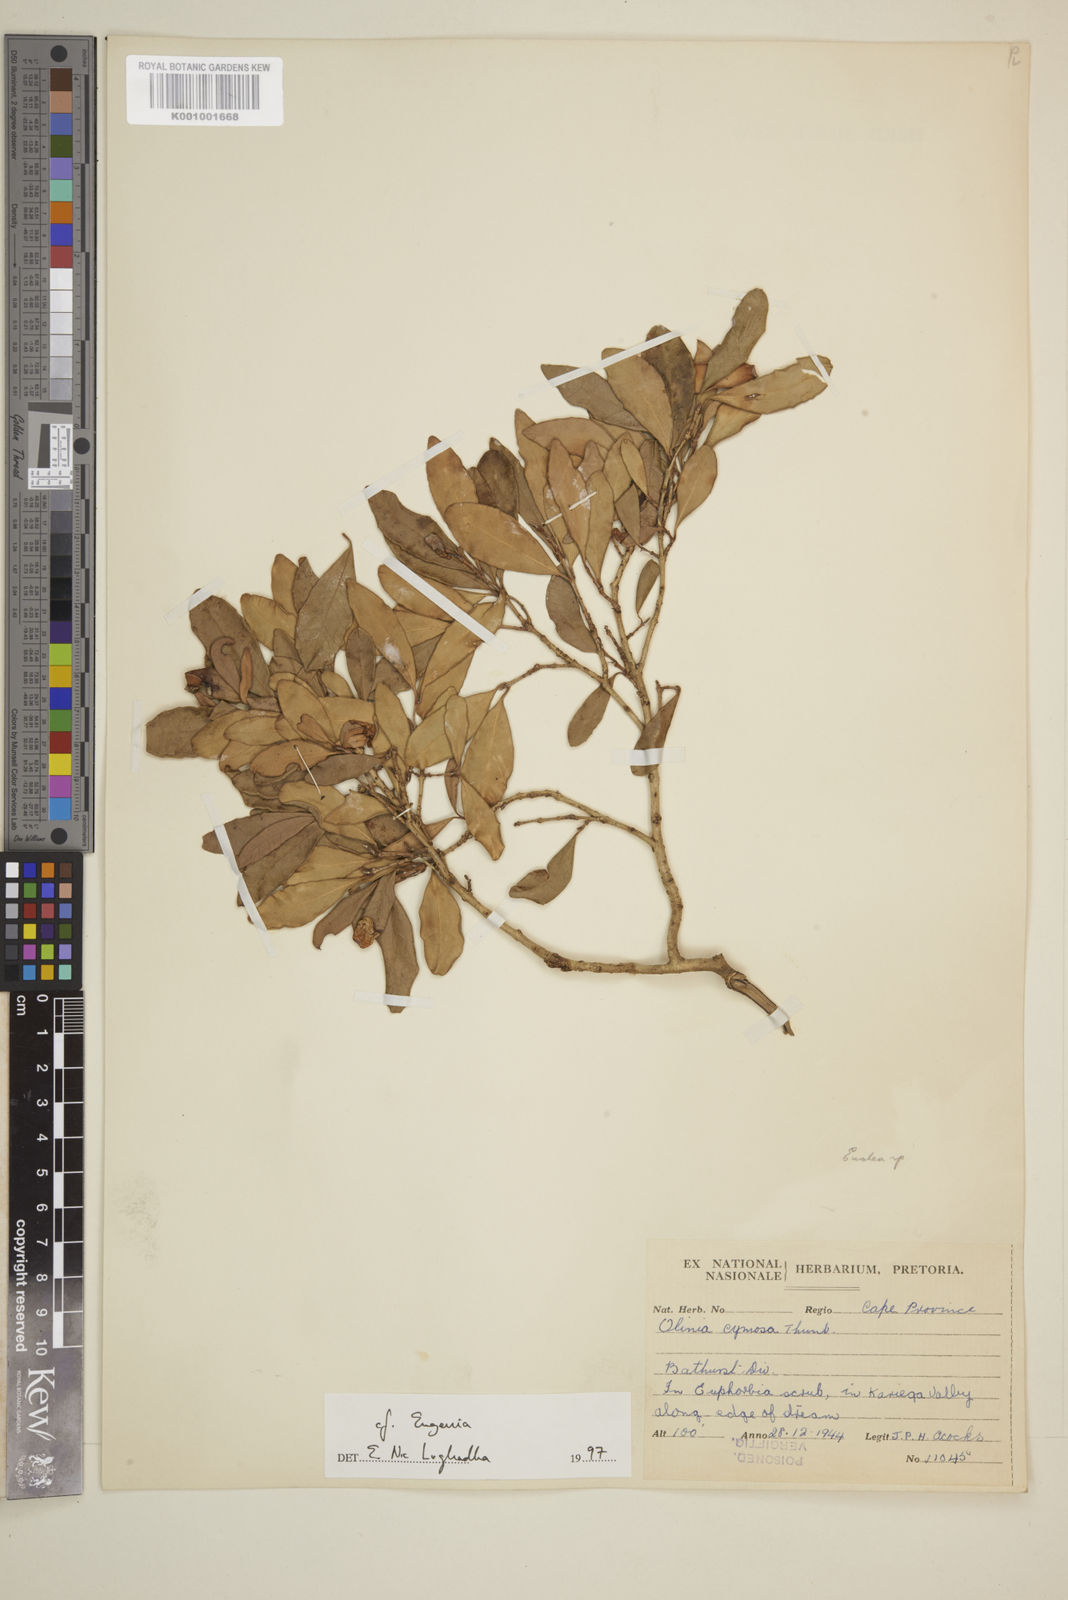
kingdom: Plantae
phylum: Tracheophyta
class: Magnoliopsida
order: Myrtales
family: Myrtaceae
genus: Eugenia
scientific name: Eugenia
